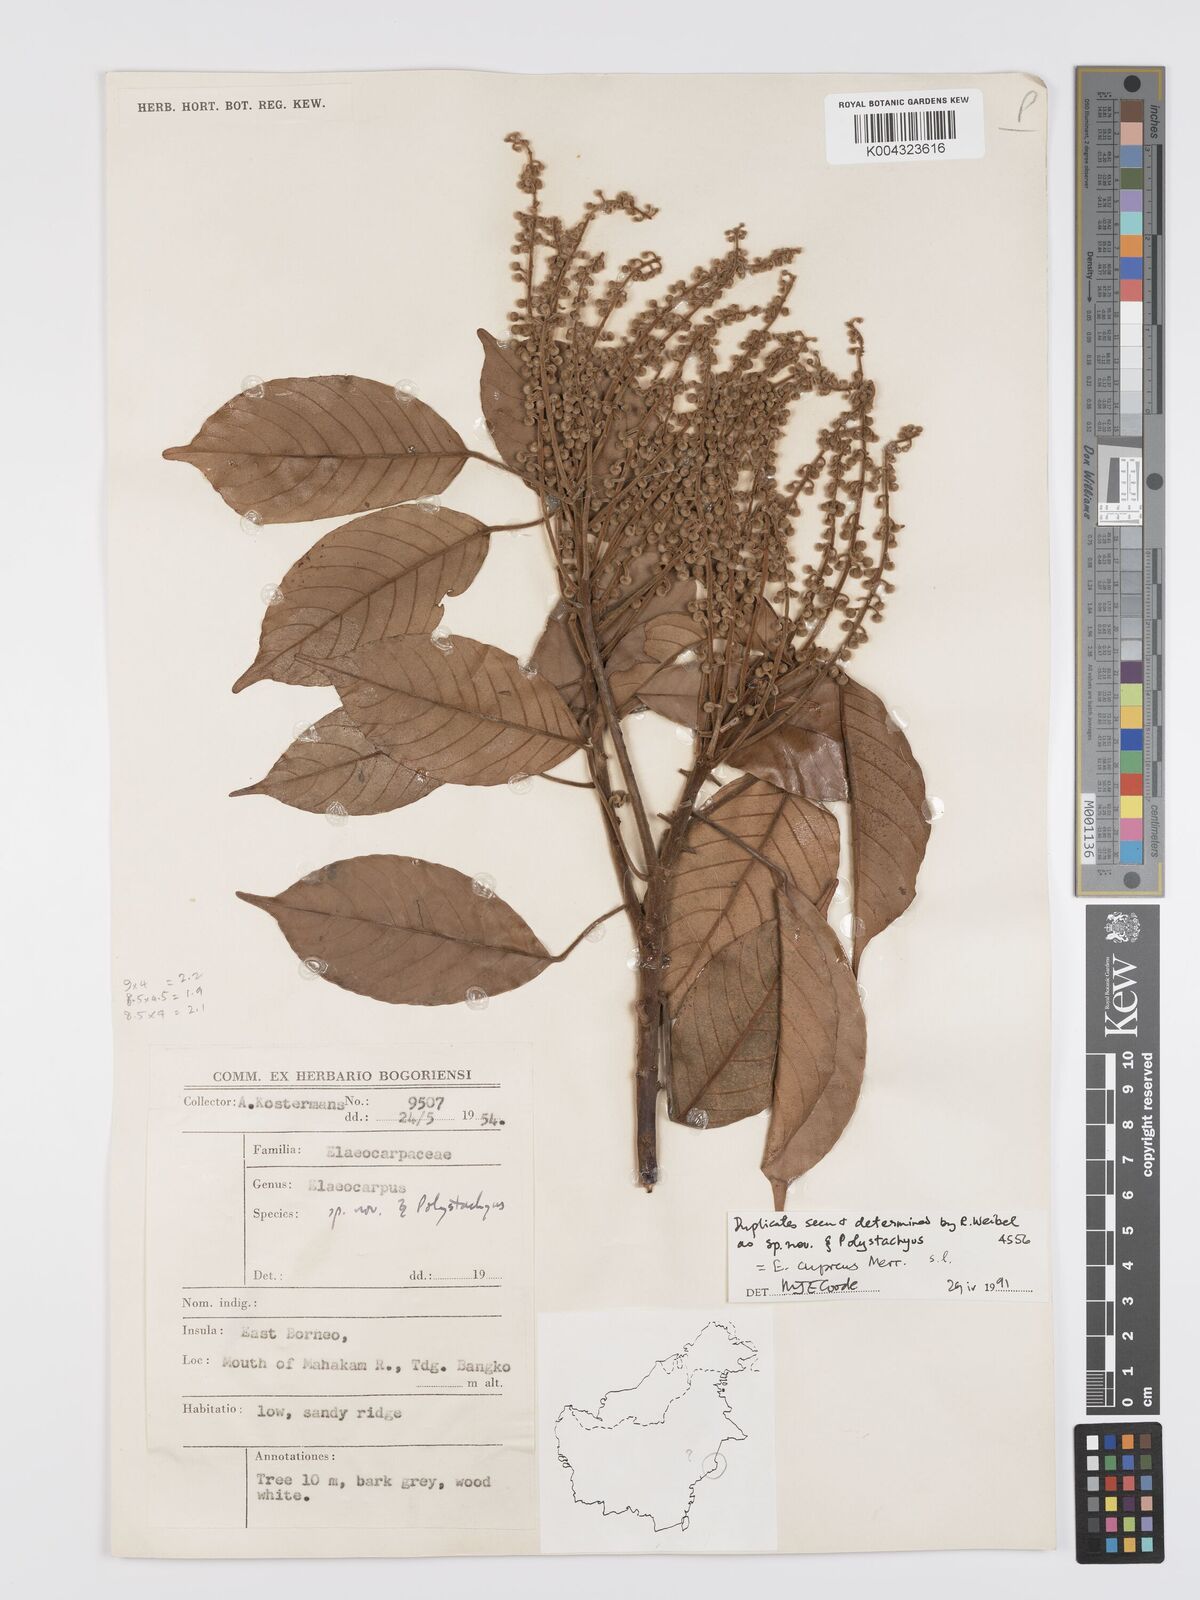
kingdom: Plantae
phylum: Tracheophyta
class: Magnoliopsida
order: Oxalidales
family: Elaeocarpaceae
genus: Elaeocarpus
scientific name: Elaeocarpus cupreus
